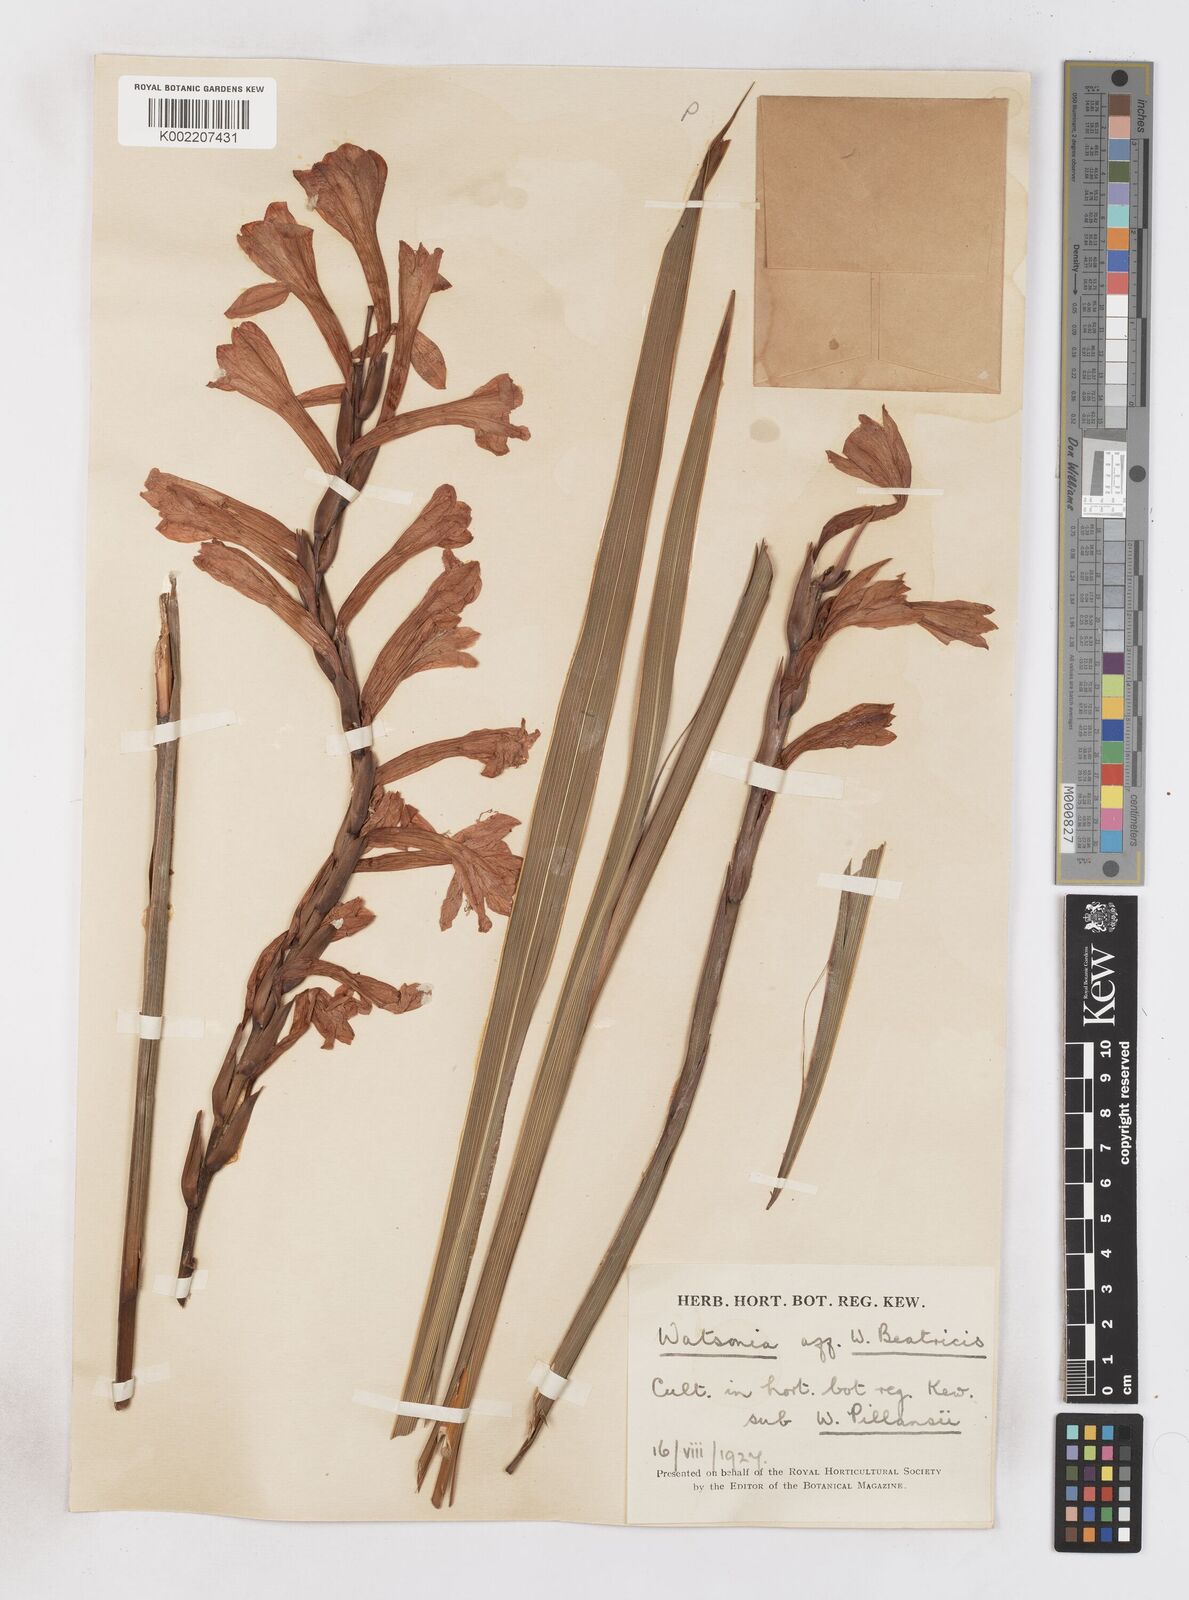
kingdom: Plantae
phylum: Tracheophyta
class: Liliopsida
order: Asparagales
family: Iridaceae
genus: Watsonia
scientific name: Watsonia pillansii
